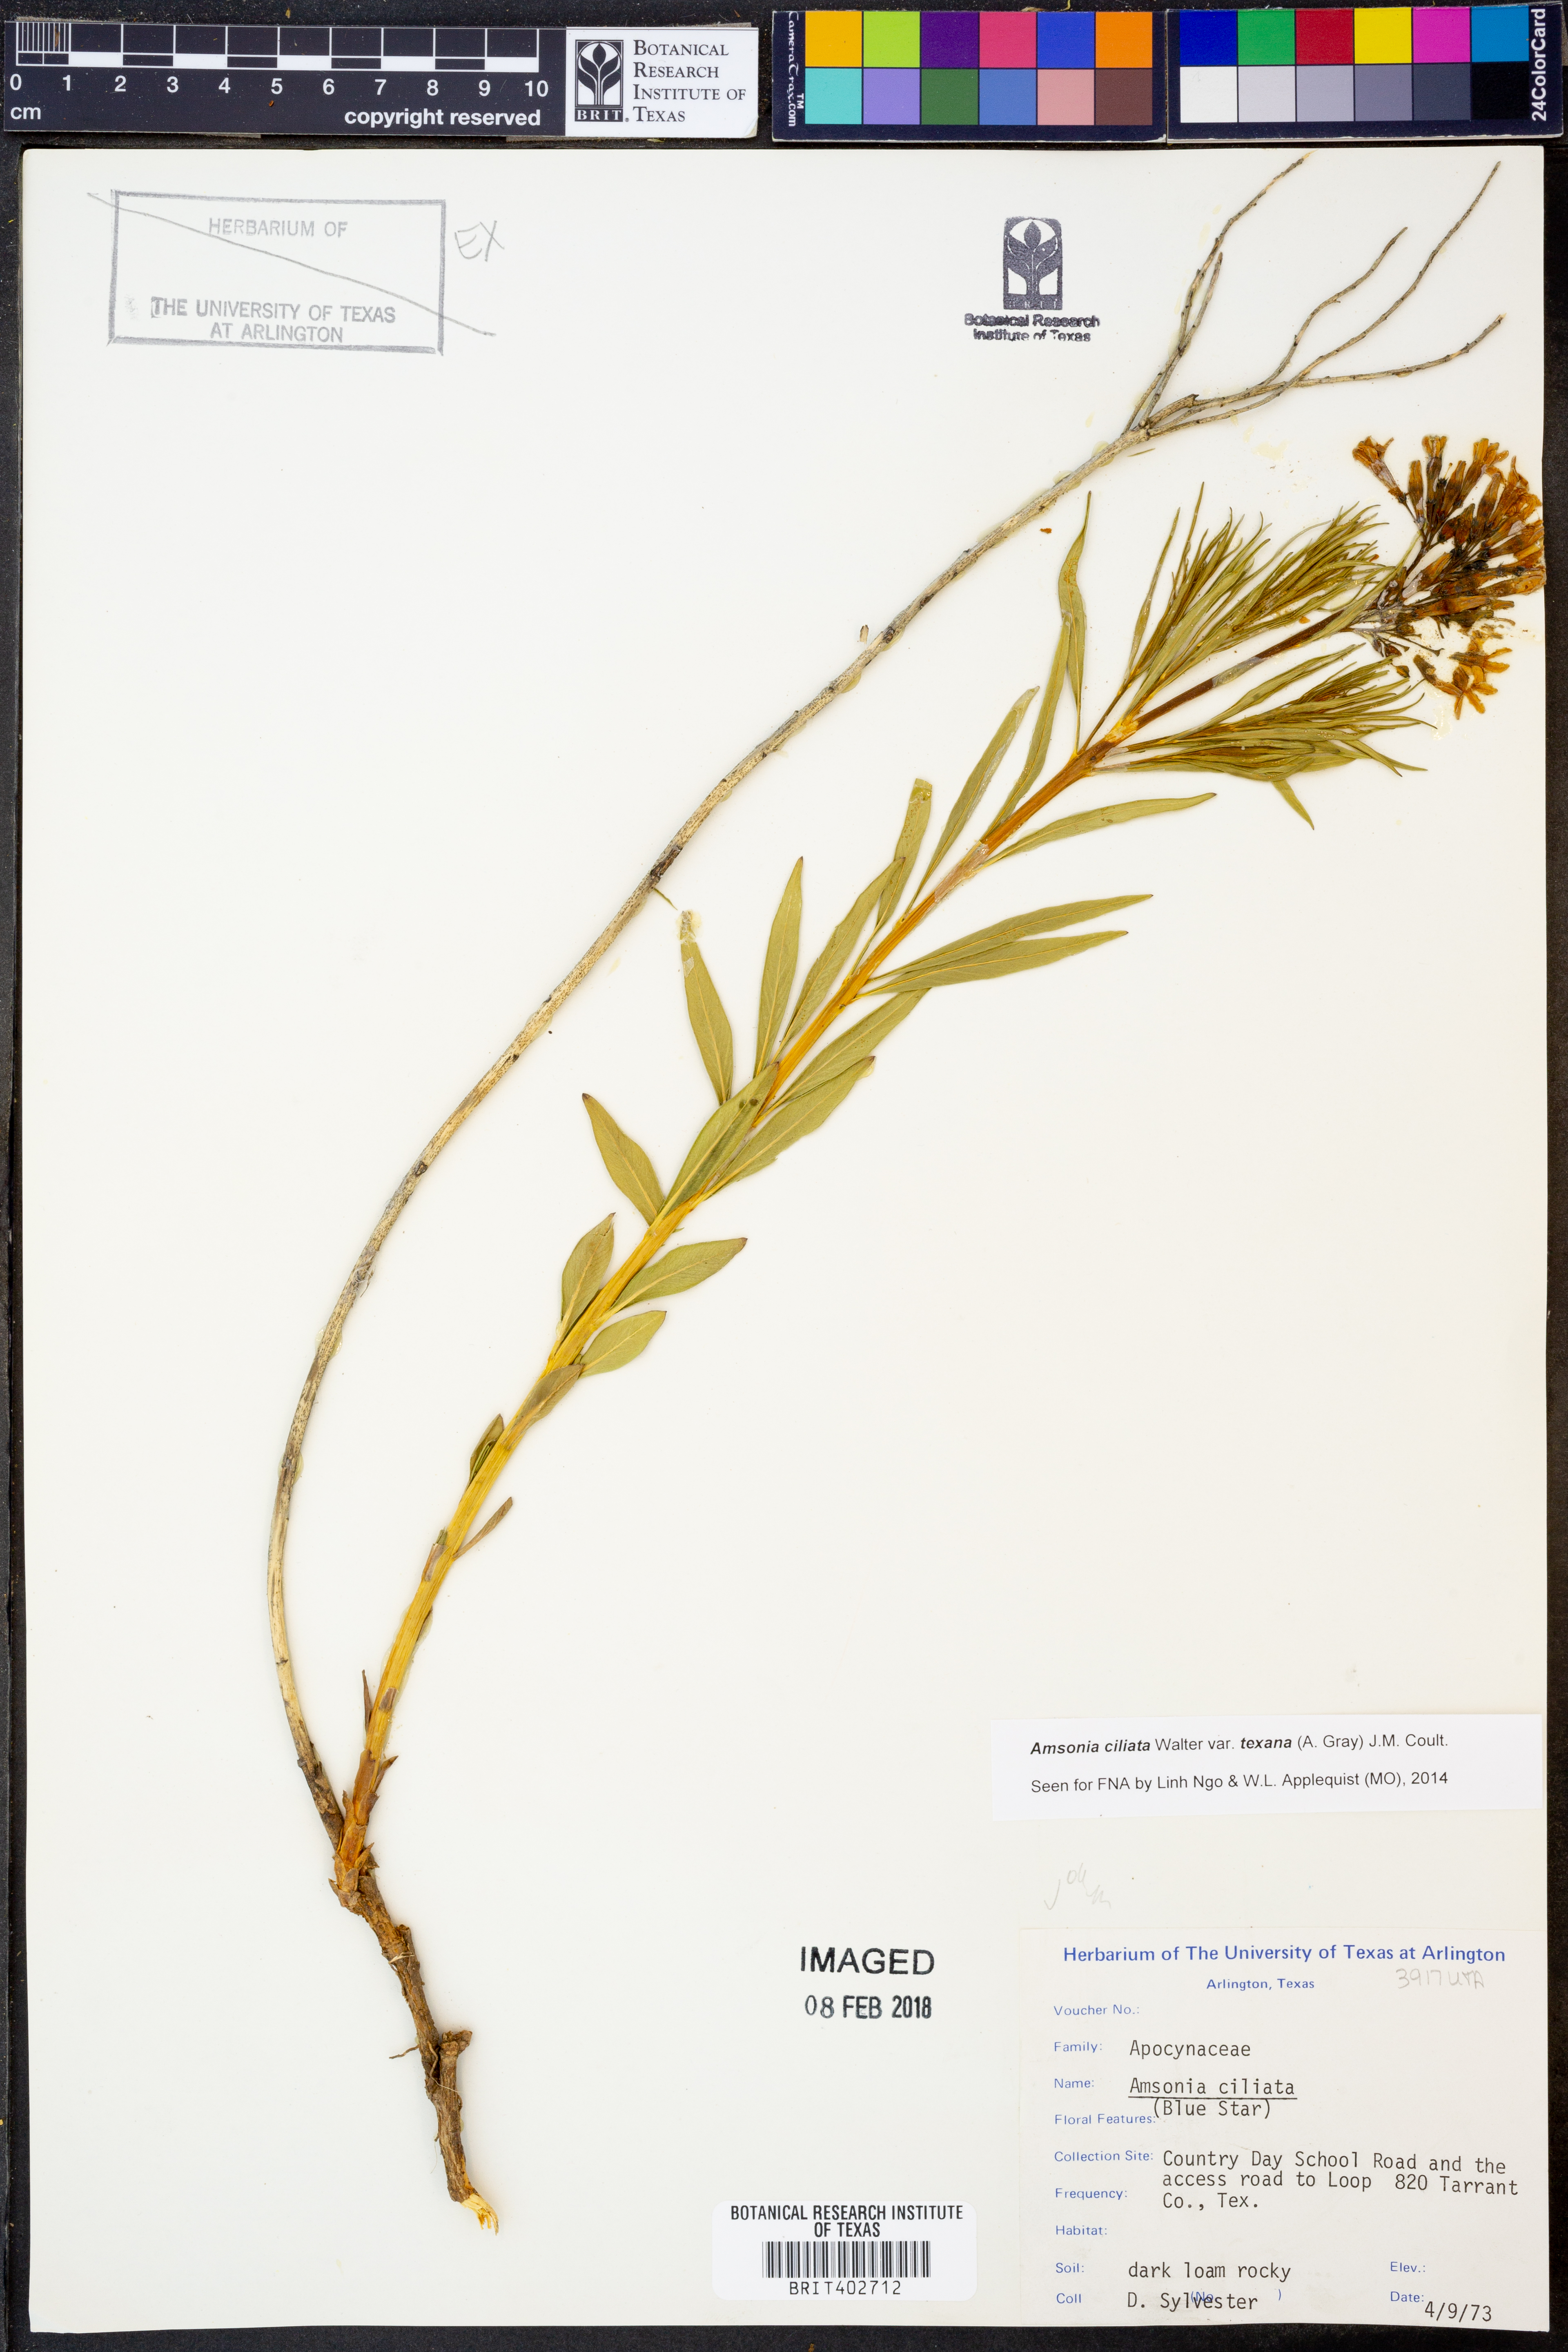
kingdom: Plantae
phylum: Tracheophyta
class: Magnoliopsida
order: Gentianales
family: Apocynaceae
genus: Amsonia
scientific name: Amsonia ciliata
